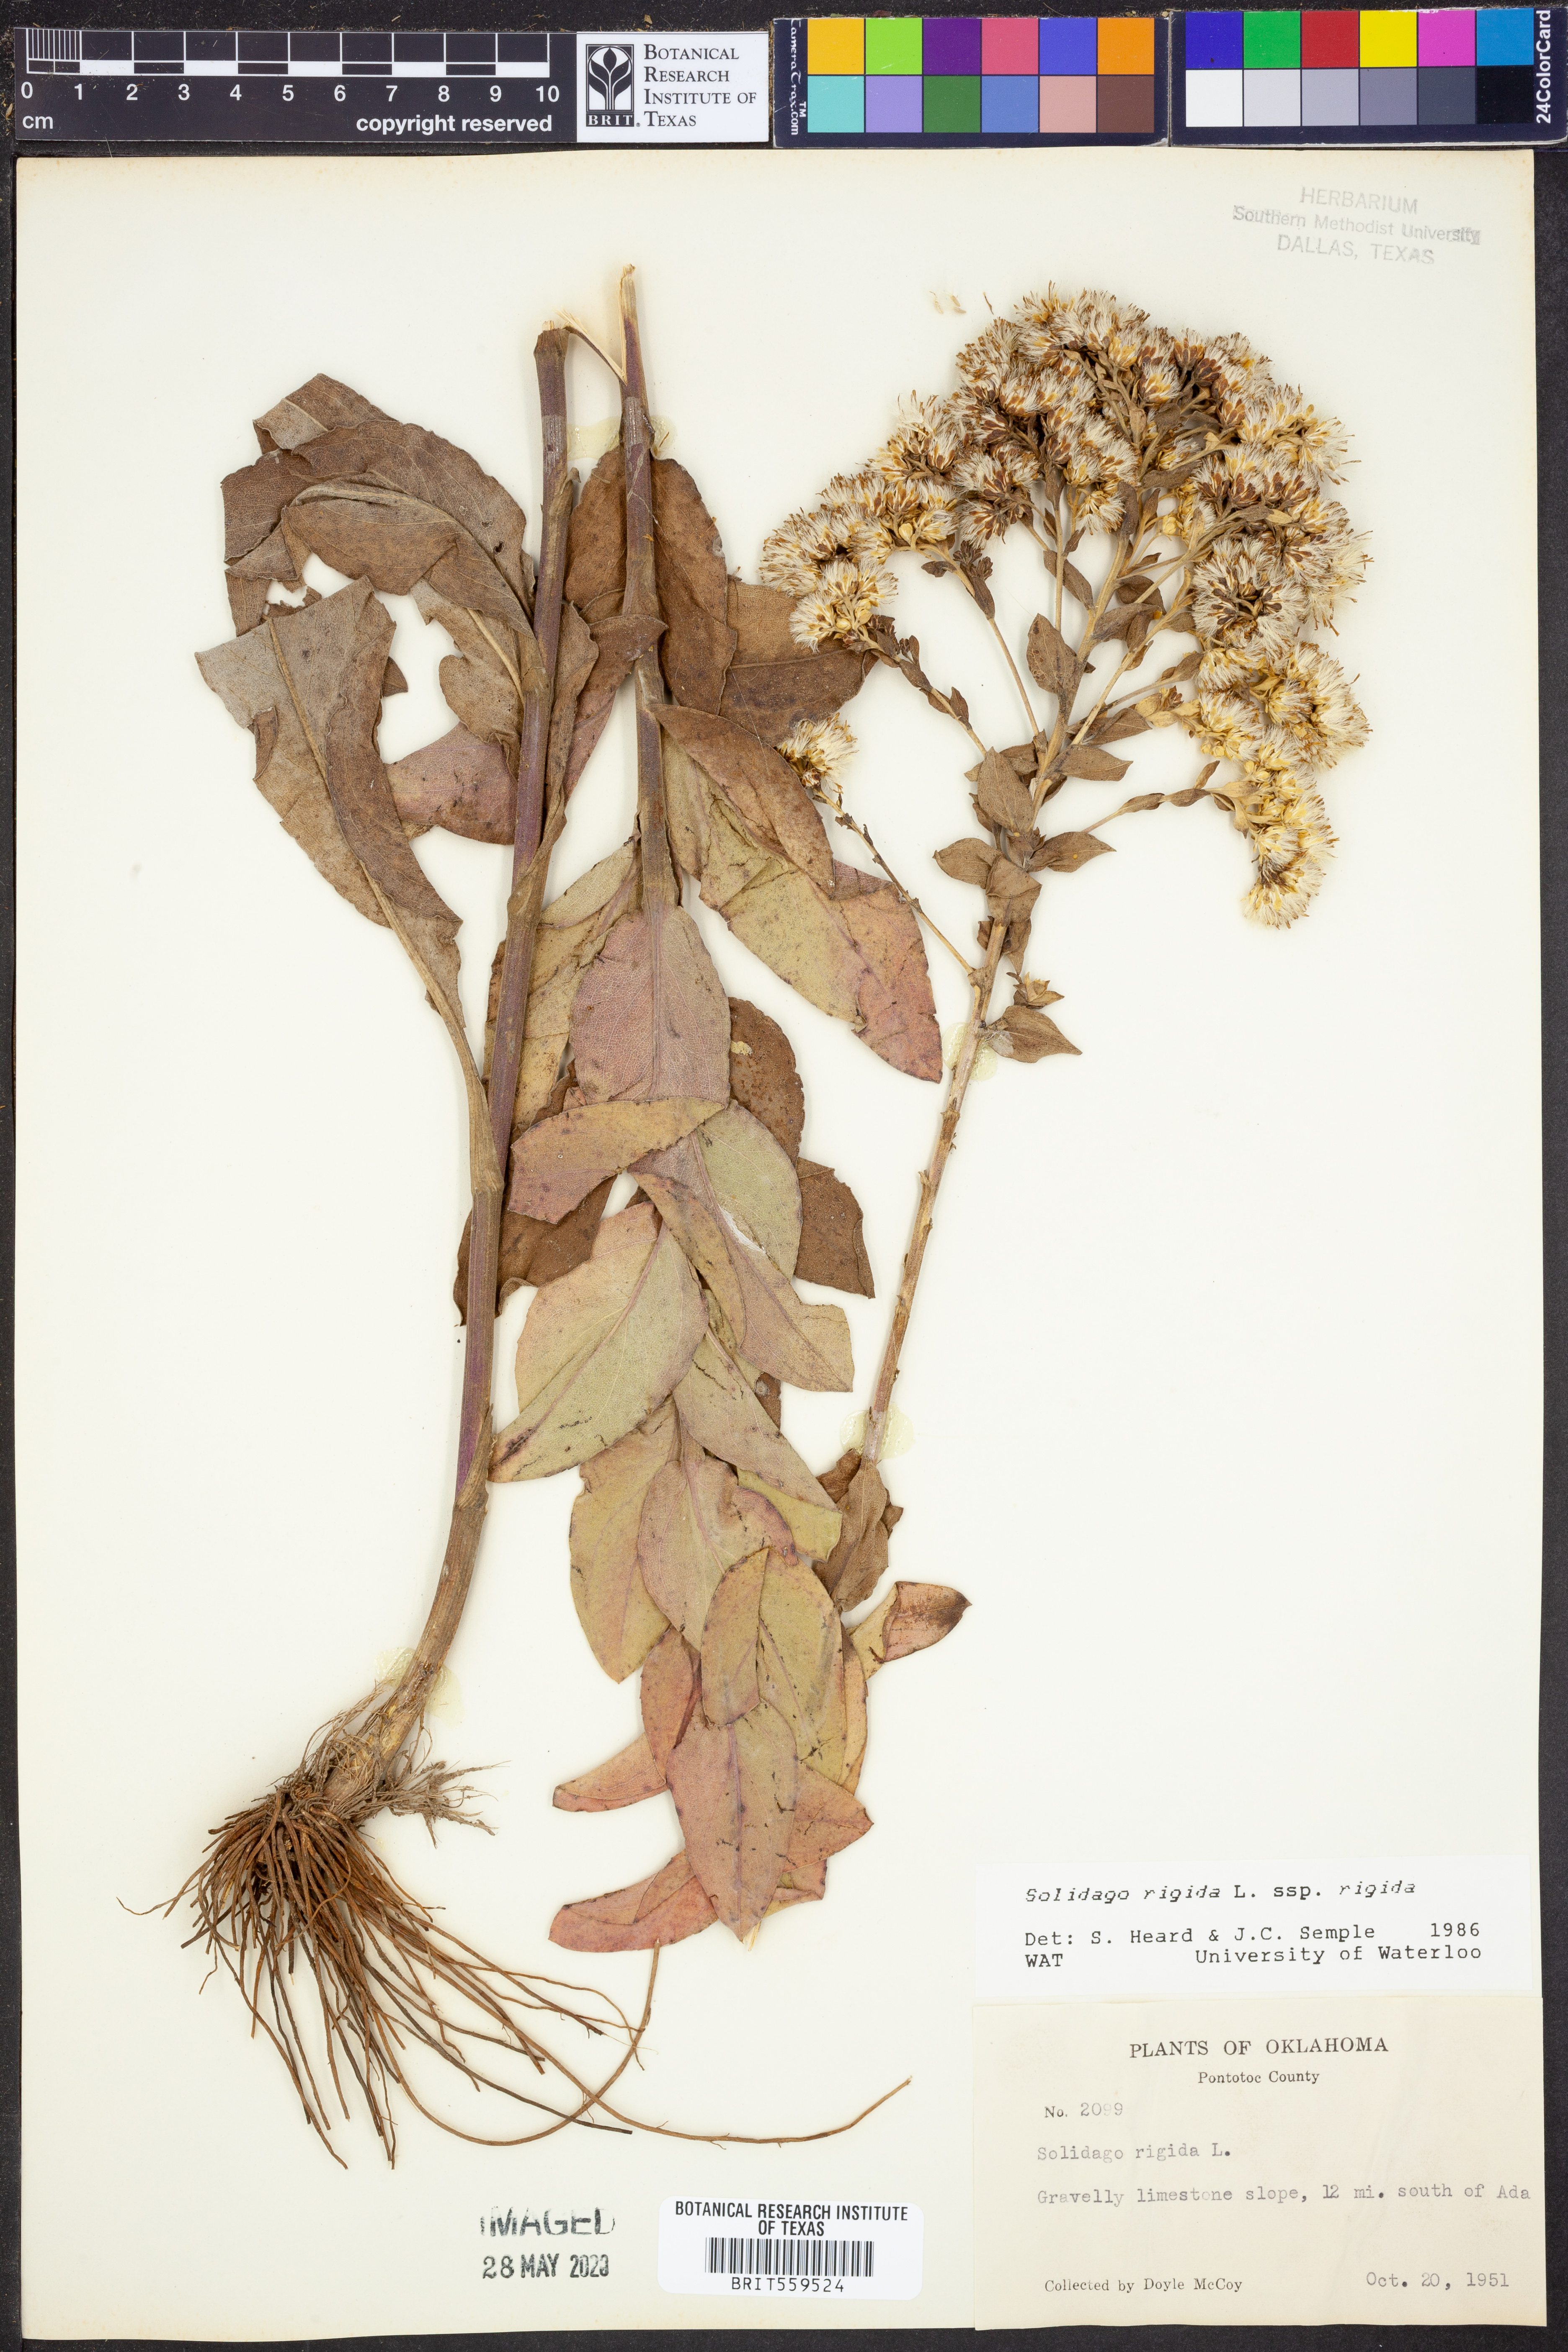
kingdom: Plantae
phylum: Tracheophyta
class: Magnoliopsida
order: Asterales
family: Asteraceae
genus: Solidago
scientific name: Solidago rigida
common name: Rigid goldenrod
